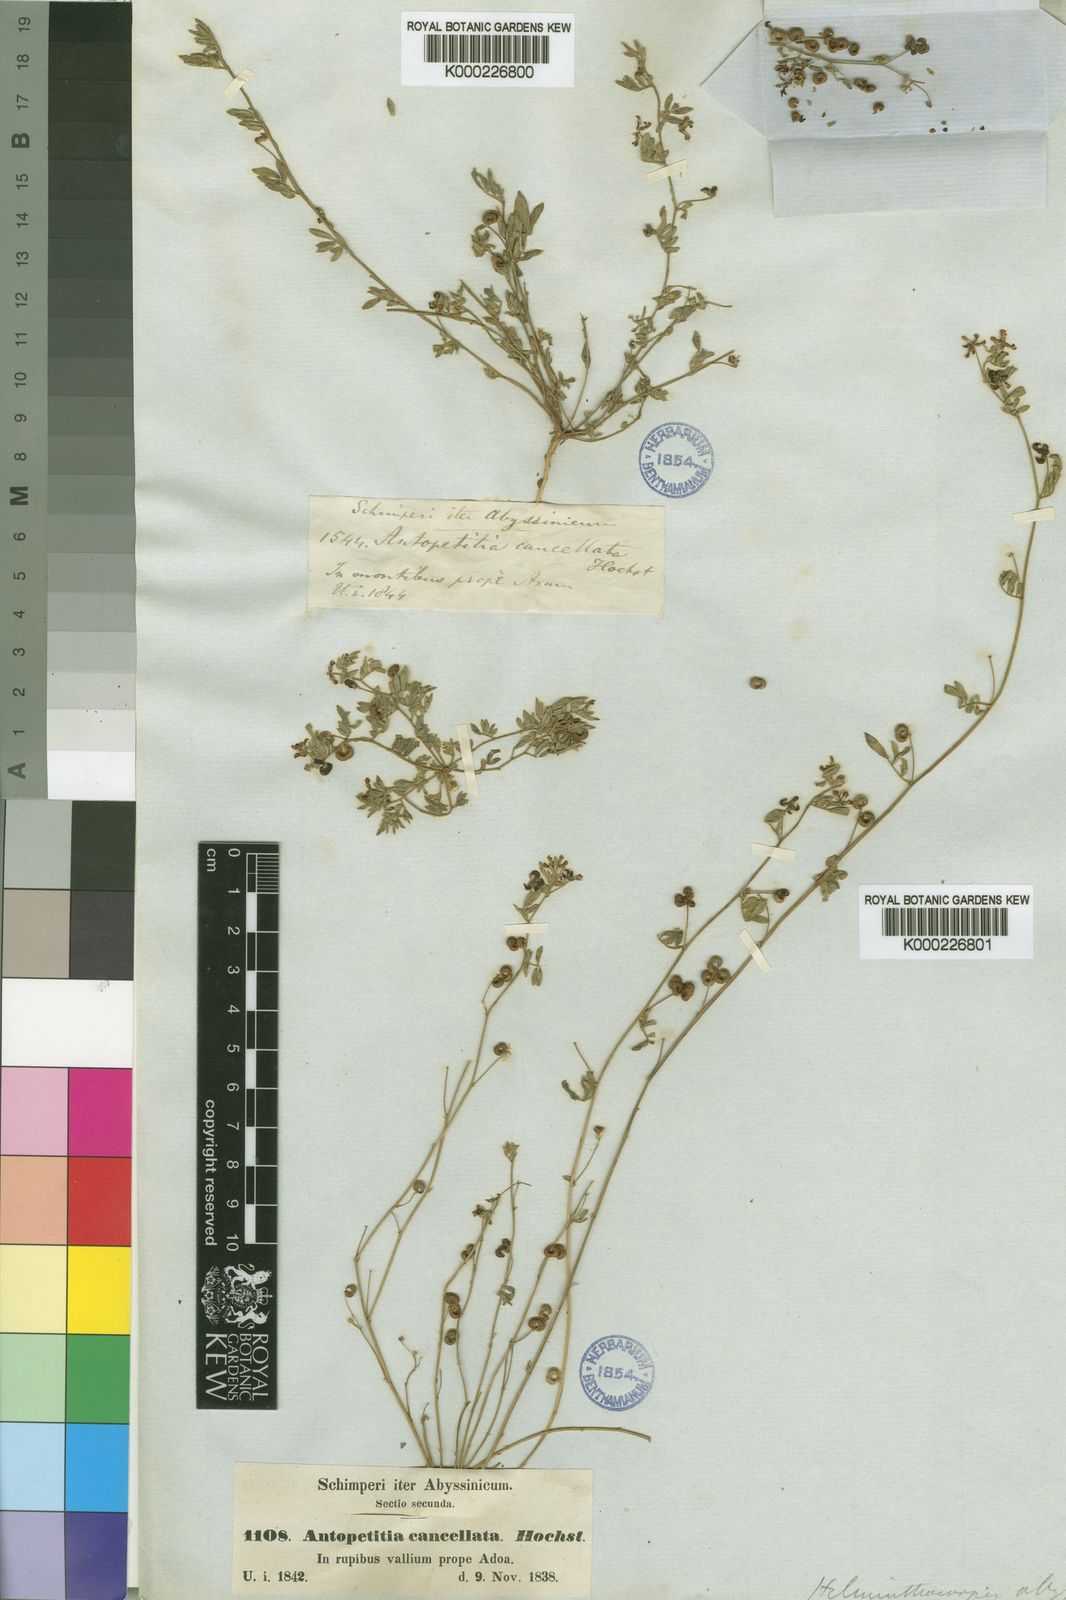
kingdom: Plantae
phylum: Tracheophyta
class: Magnoliopsida
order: Fabales
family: Fabaceae
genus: Dorycnopsis
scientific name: Dorycnopsis abyssinica
